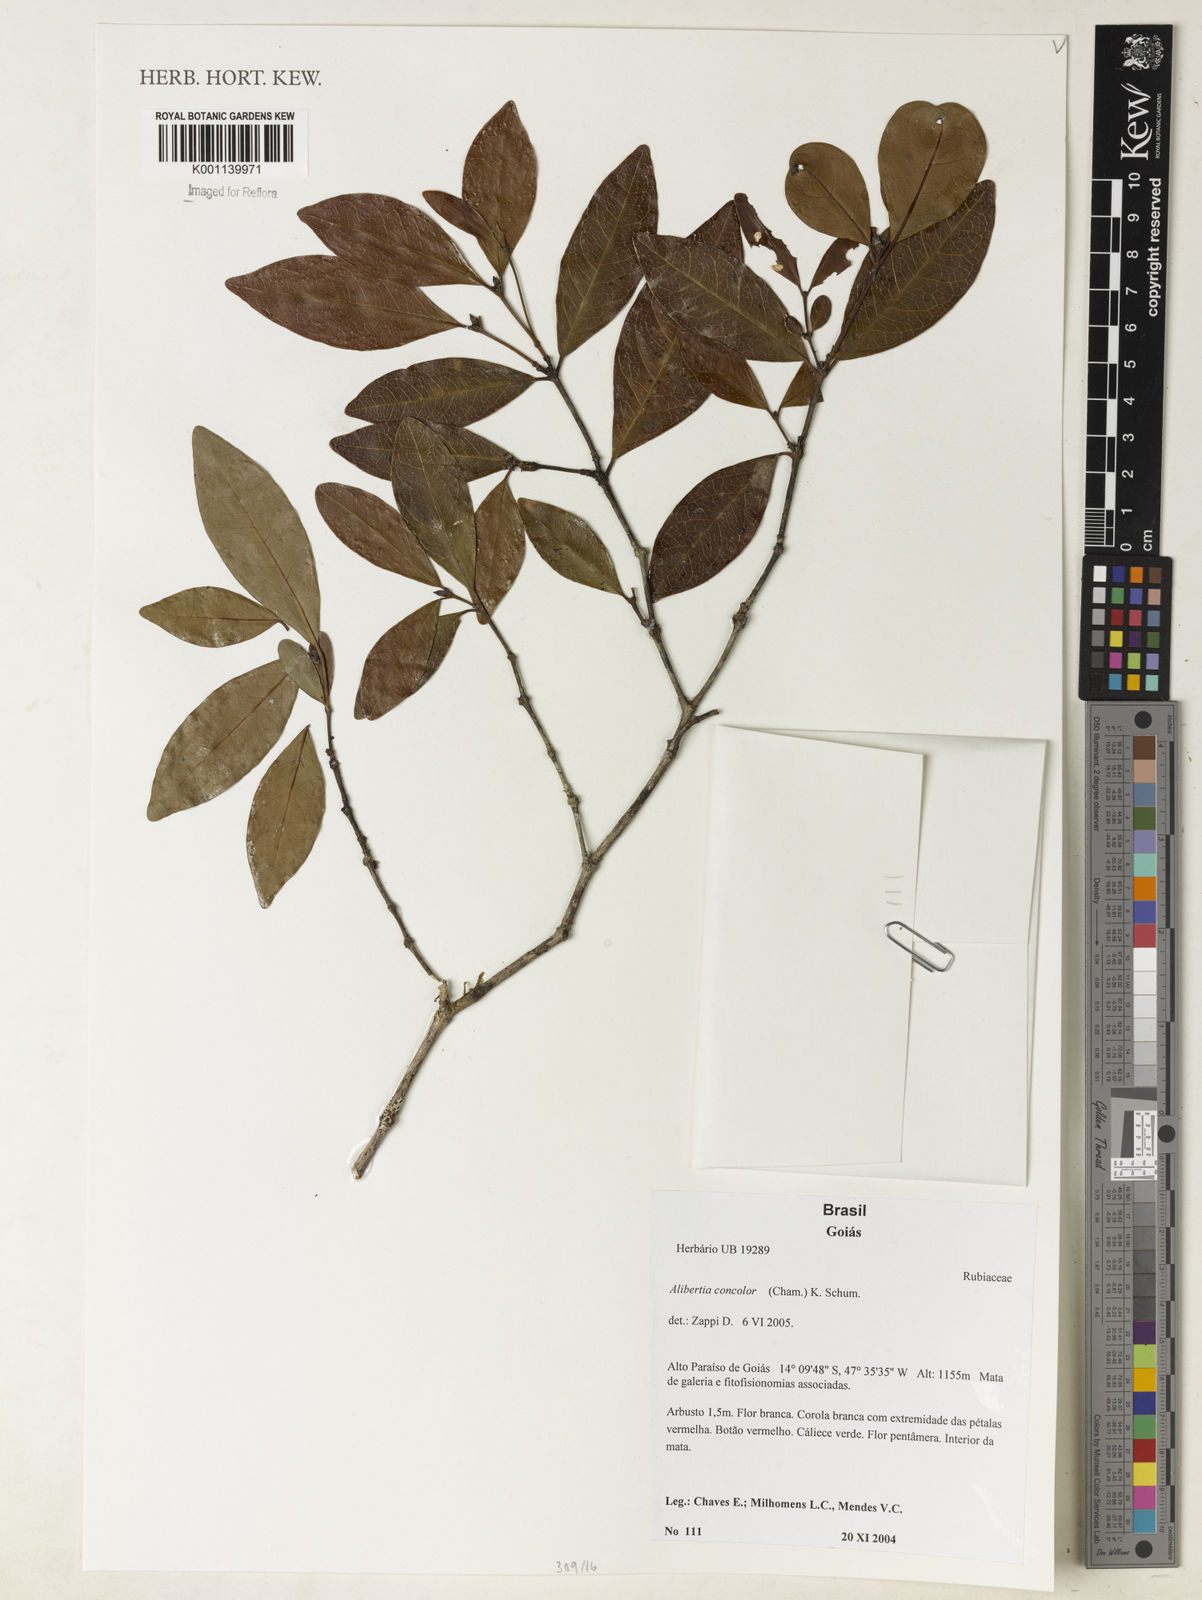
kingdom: Plantae
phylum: Tracheophyta
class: Magnoliopsida
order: Gentianales
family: Rubiaceae
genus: Cordiera
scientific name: Cordiera concolor
